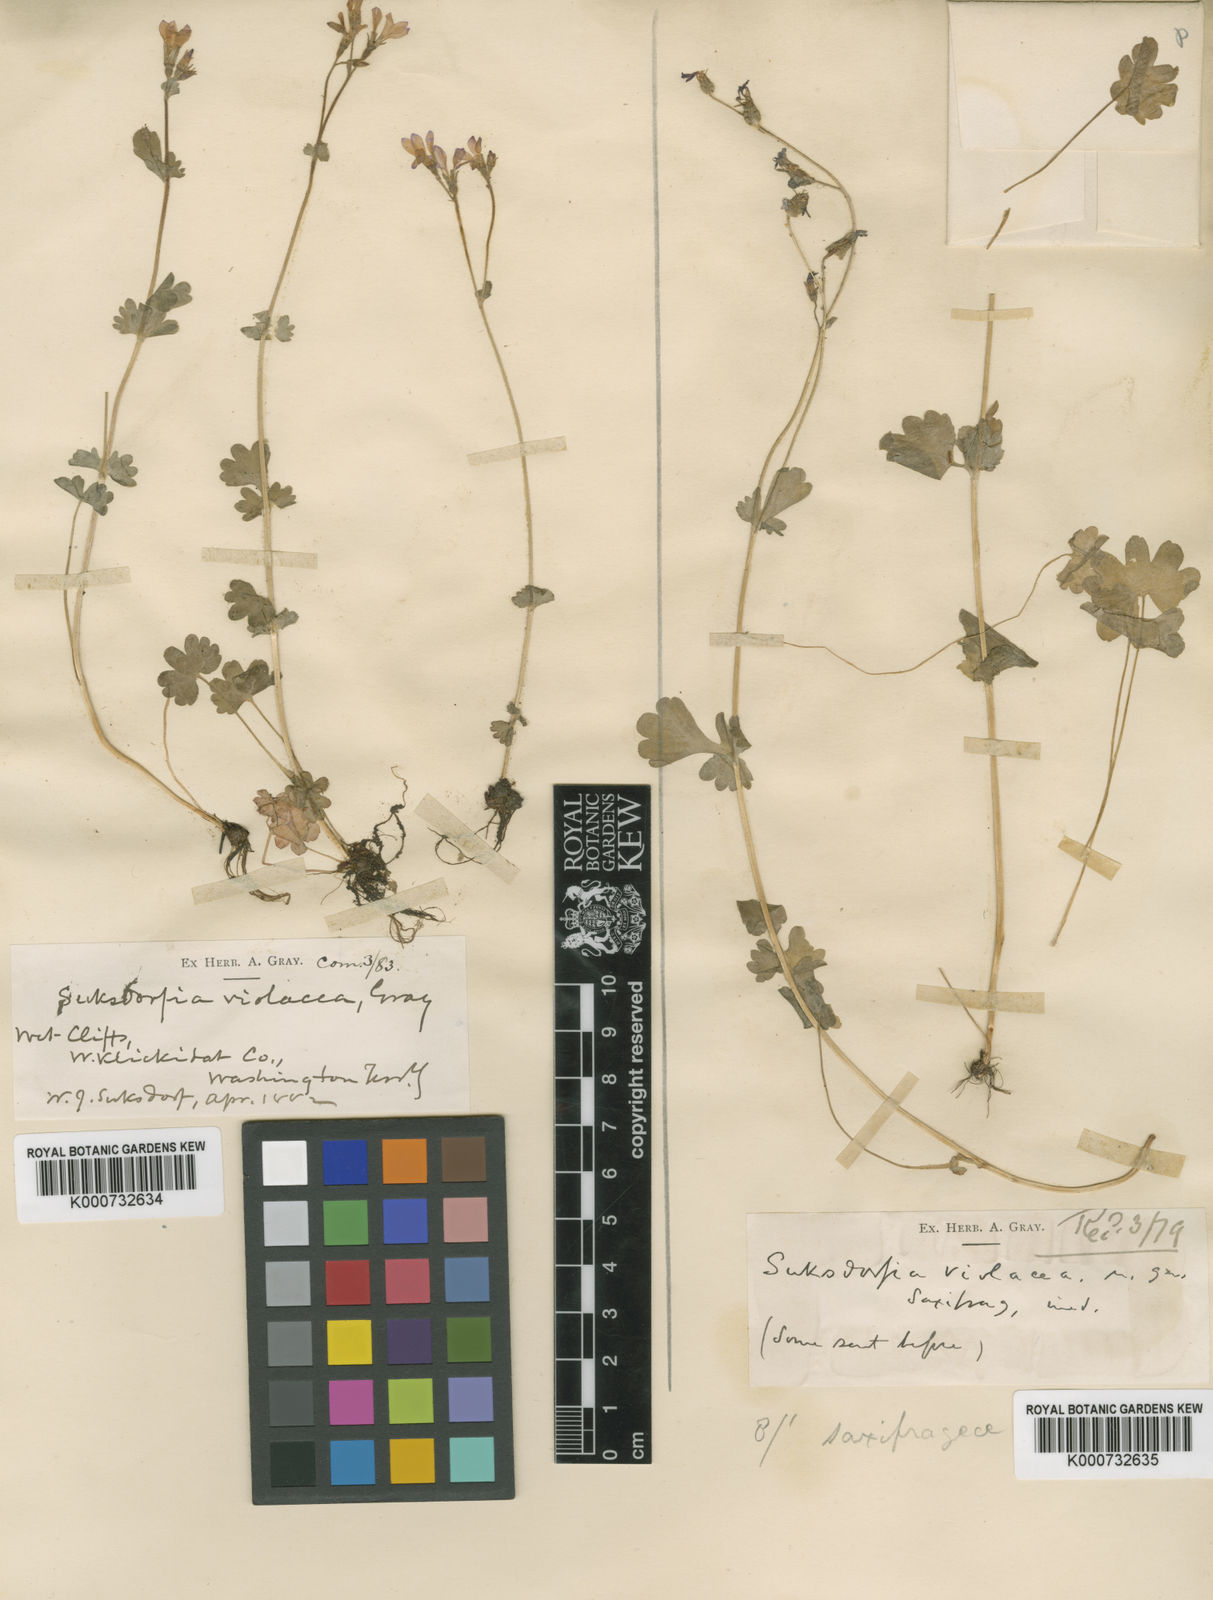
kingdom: Plantae
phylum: Tracheophyta
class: Magnoliopsida
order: Saxifragales
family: Saxifragaceae
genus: Suksdorfia
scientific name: Suksdorfia violacea
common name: Blue suksdorfia
